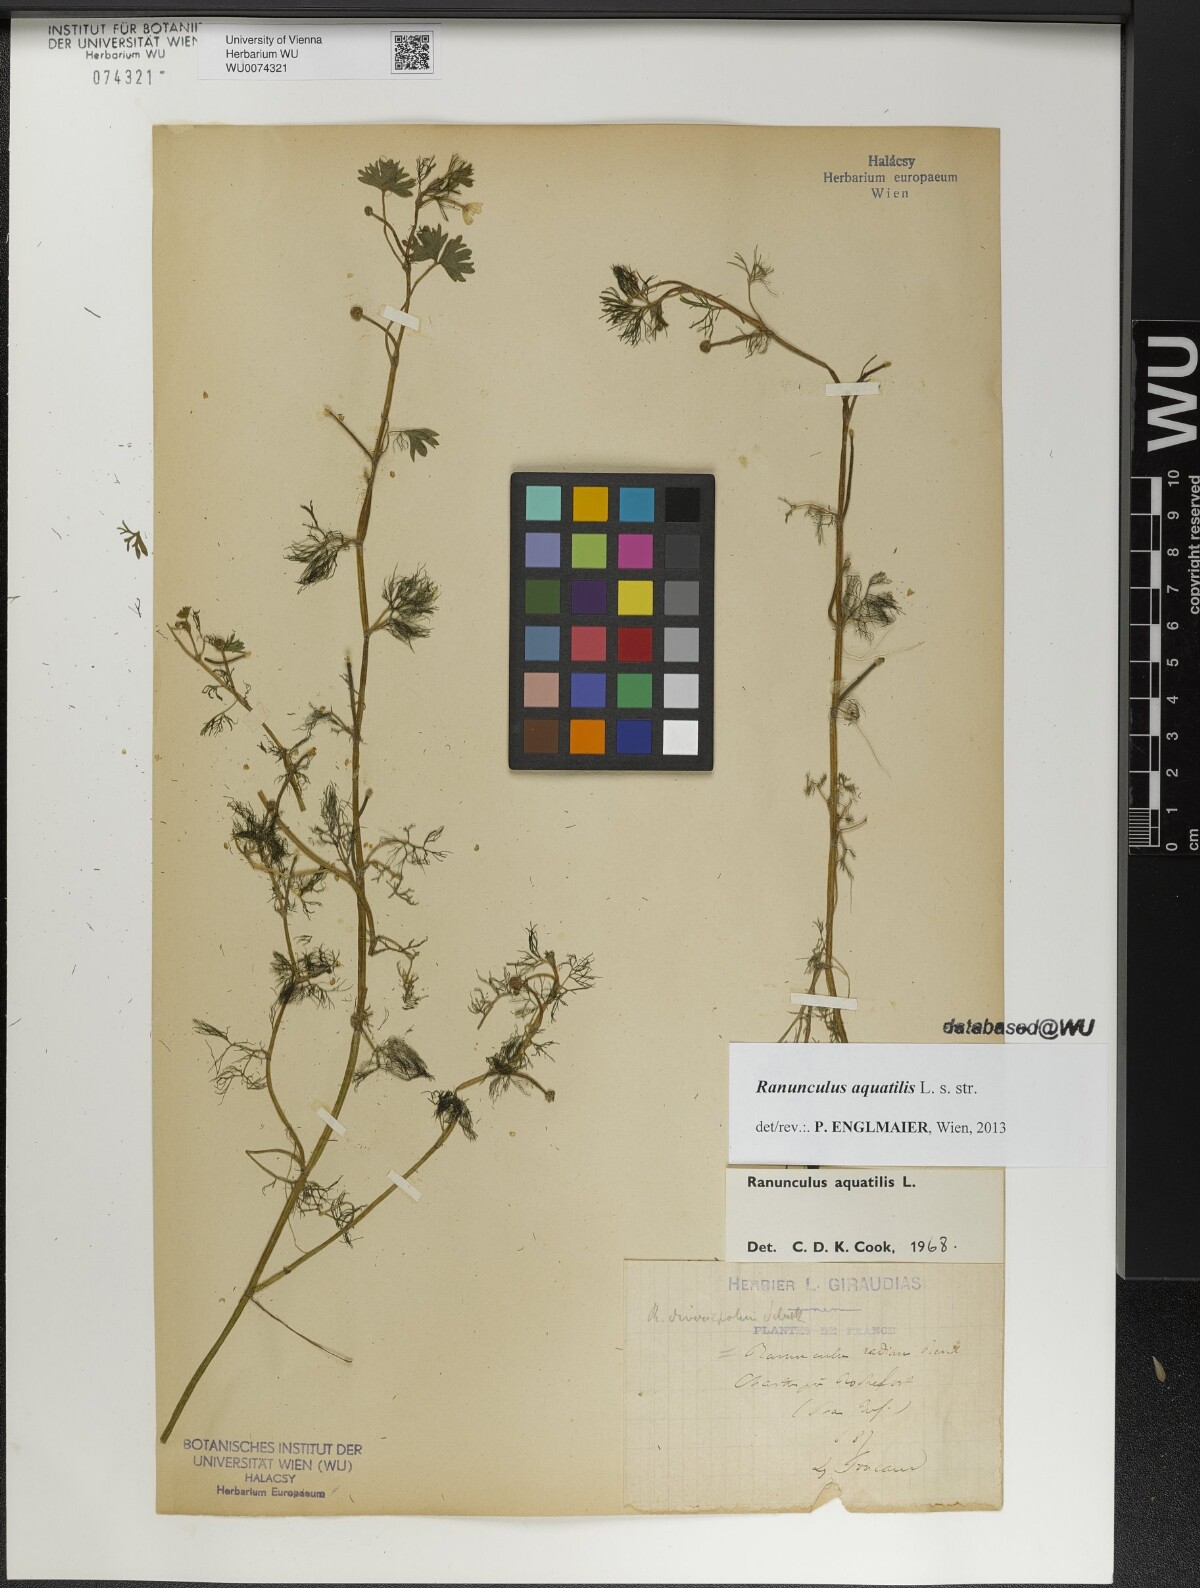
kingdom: Plantae
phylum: Tracheophyta
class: Magnoliopsida
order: Ranunculales
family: Ranunculaceae
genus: Ranunculus
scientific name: Ranunculus aquatilis
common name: Common water-crowfoot
